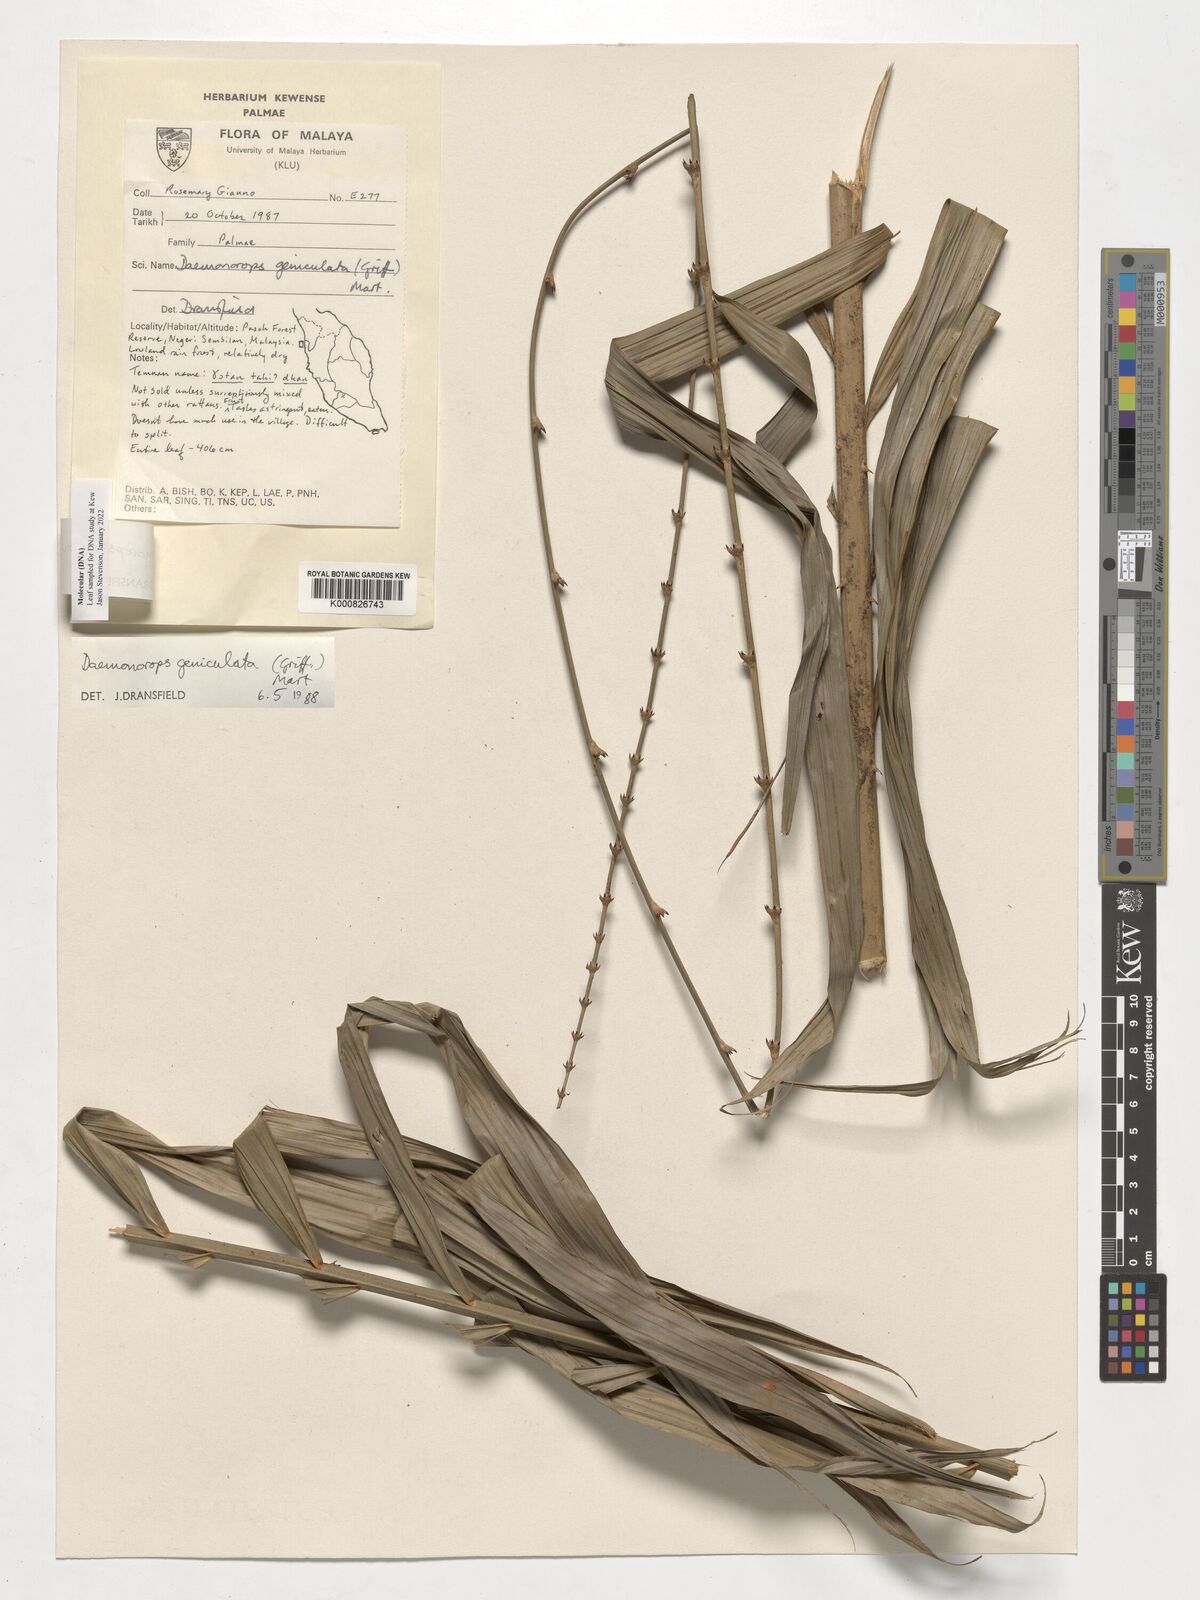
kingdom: Plantae
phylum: Tracheophyta
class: Liliopsida
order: Arecales
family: Arecaceae
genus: Calamus
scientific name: Calamus geniculatus
